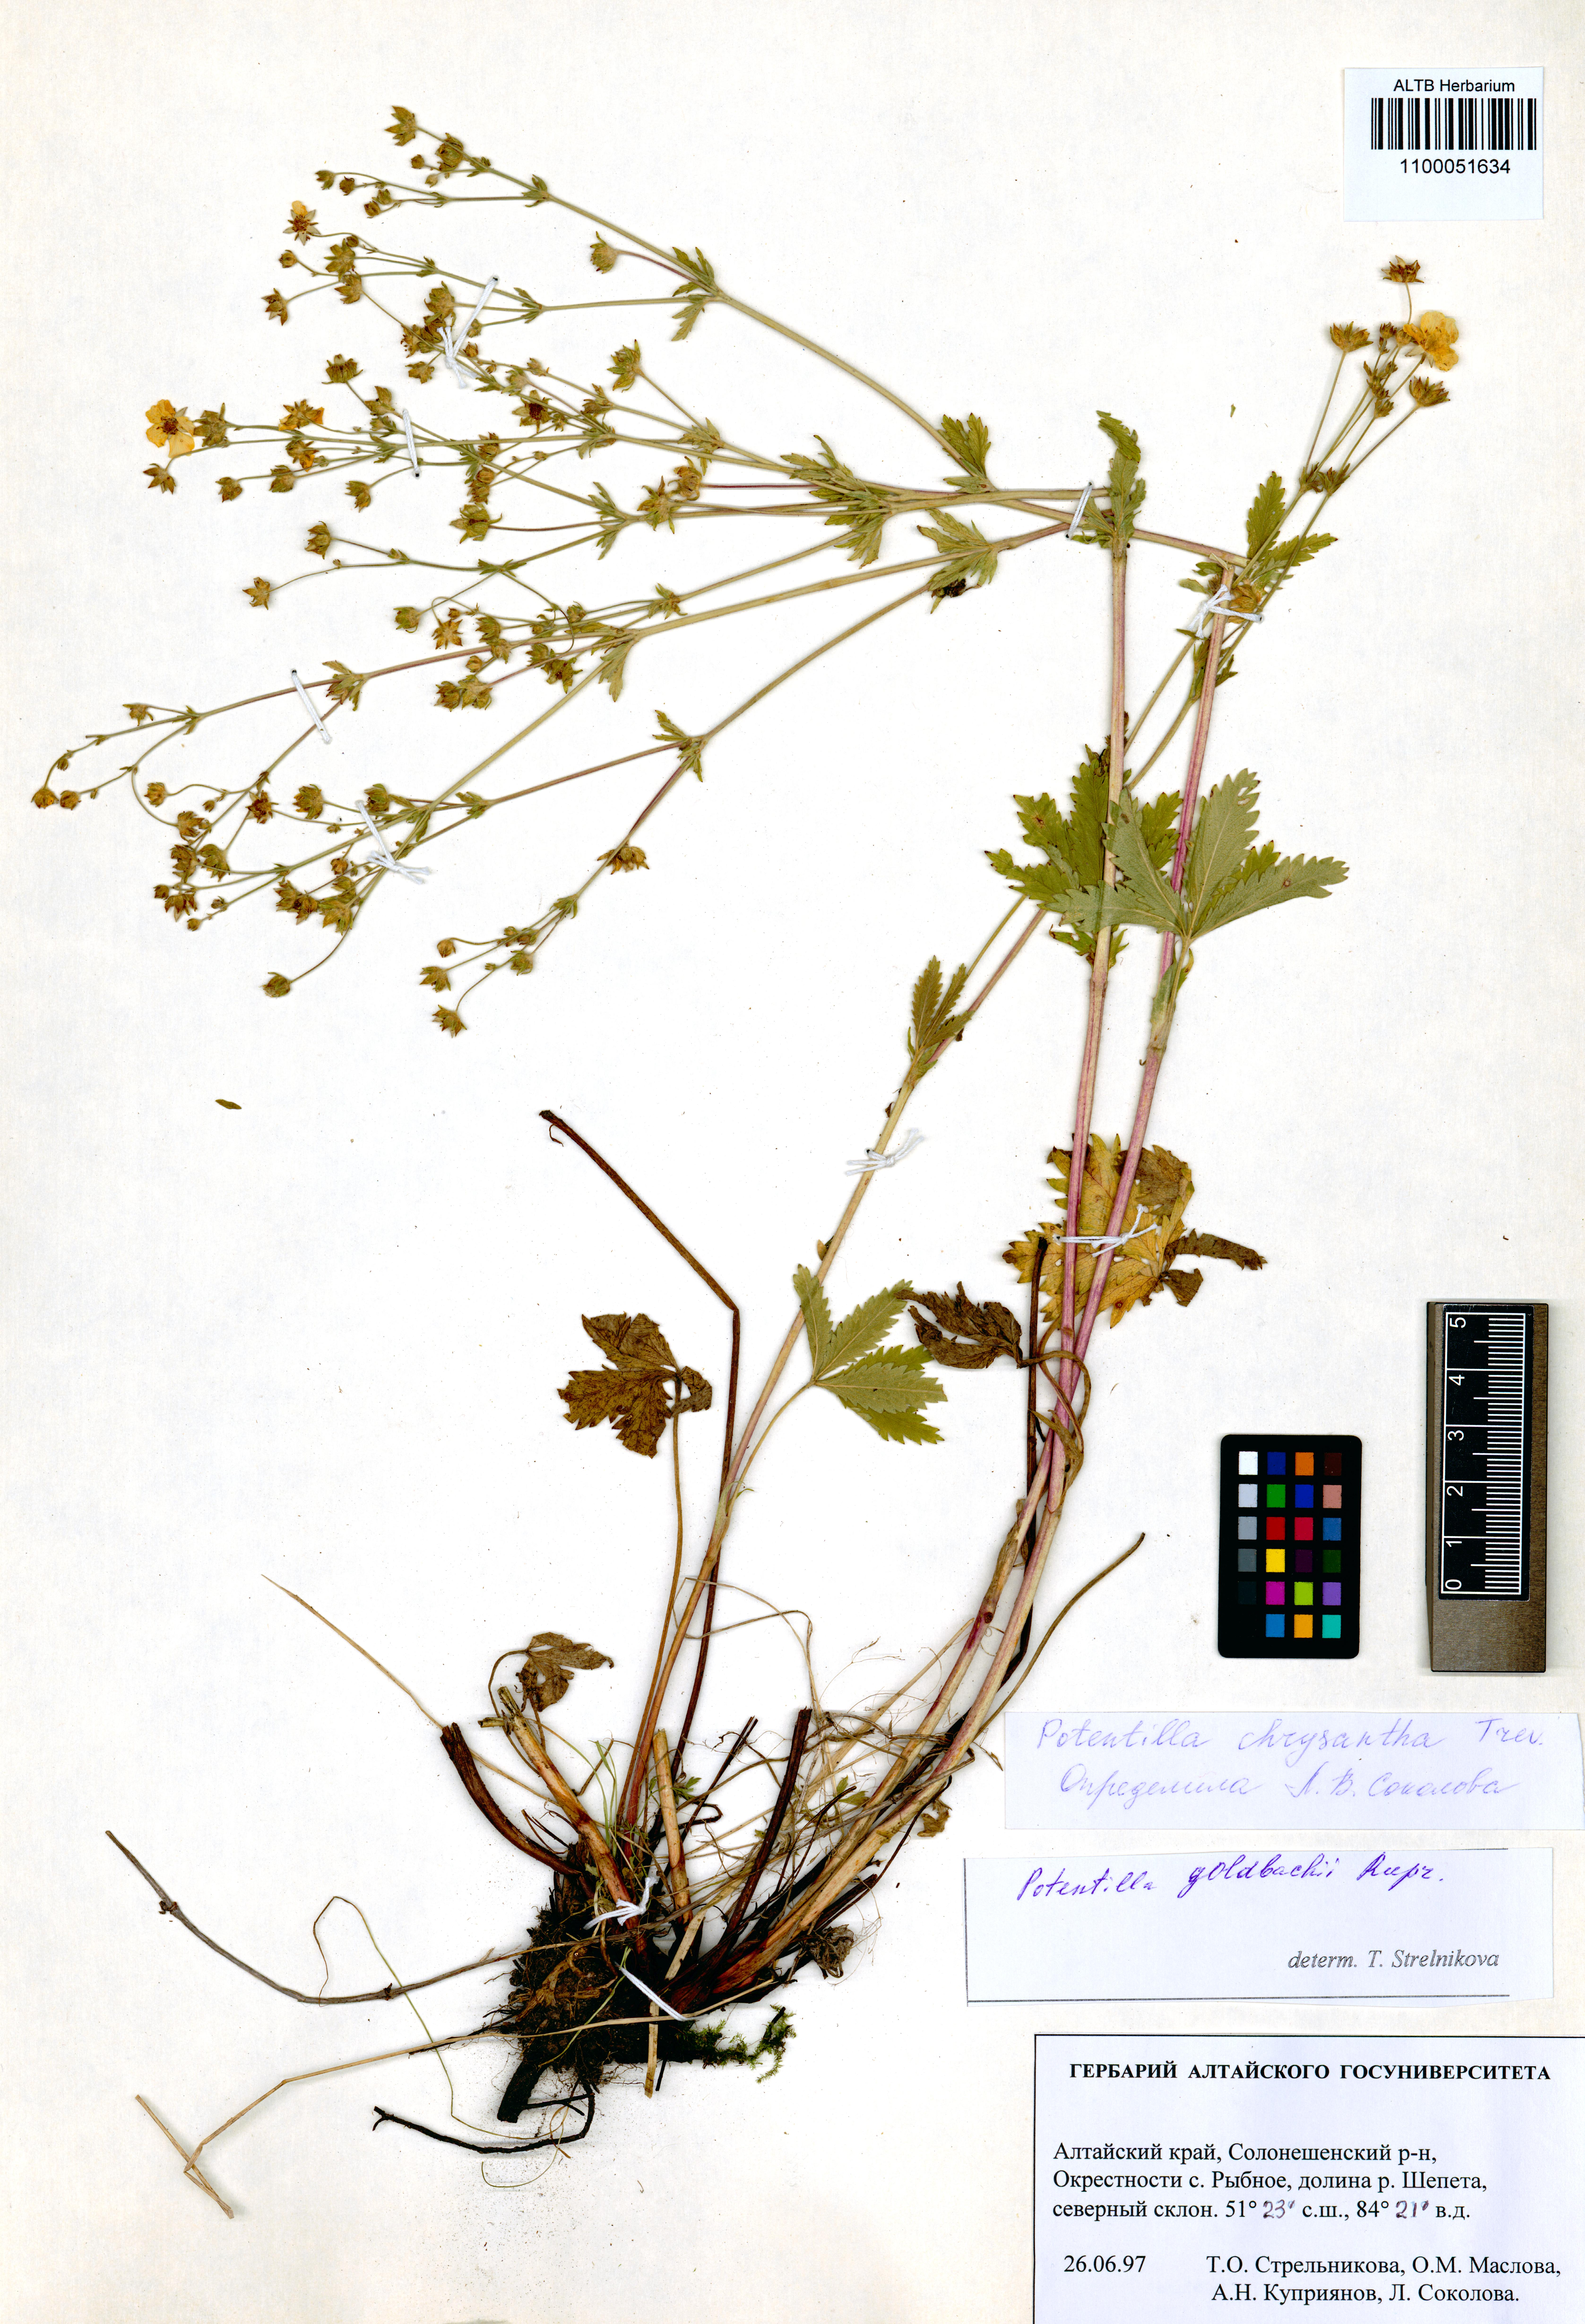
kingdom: Plantae
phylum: Tracheophyta
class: Magnoliopsida
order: Rosales
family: Rosaceae
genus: Potentilla
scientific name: Potentilla chrysantha
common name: Thuringian cinquefoil
